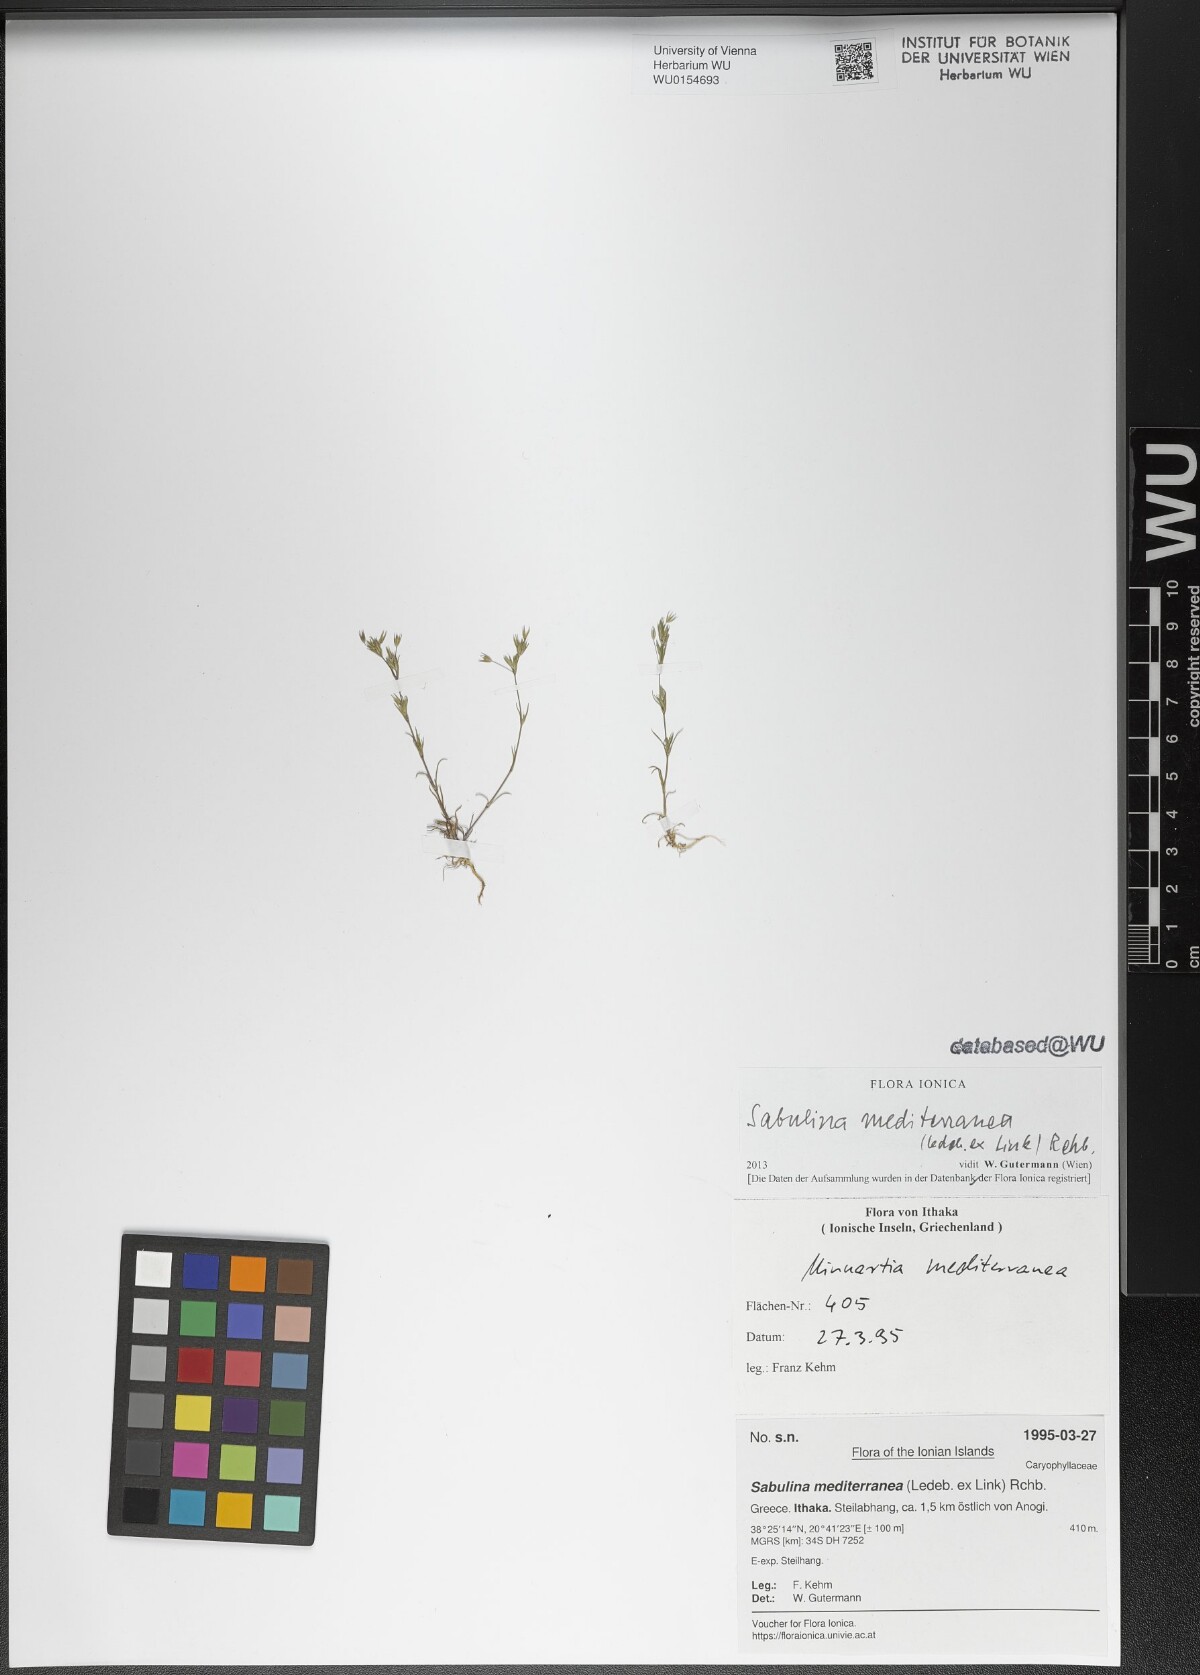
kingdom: Plantae
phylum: Tracheophyta
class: Magnoliopsida
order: Caryophyllales
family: Caryophyllaceae
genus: Sabulina
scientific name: Sabulina mediterranea
